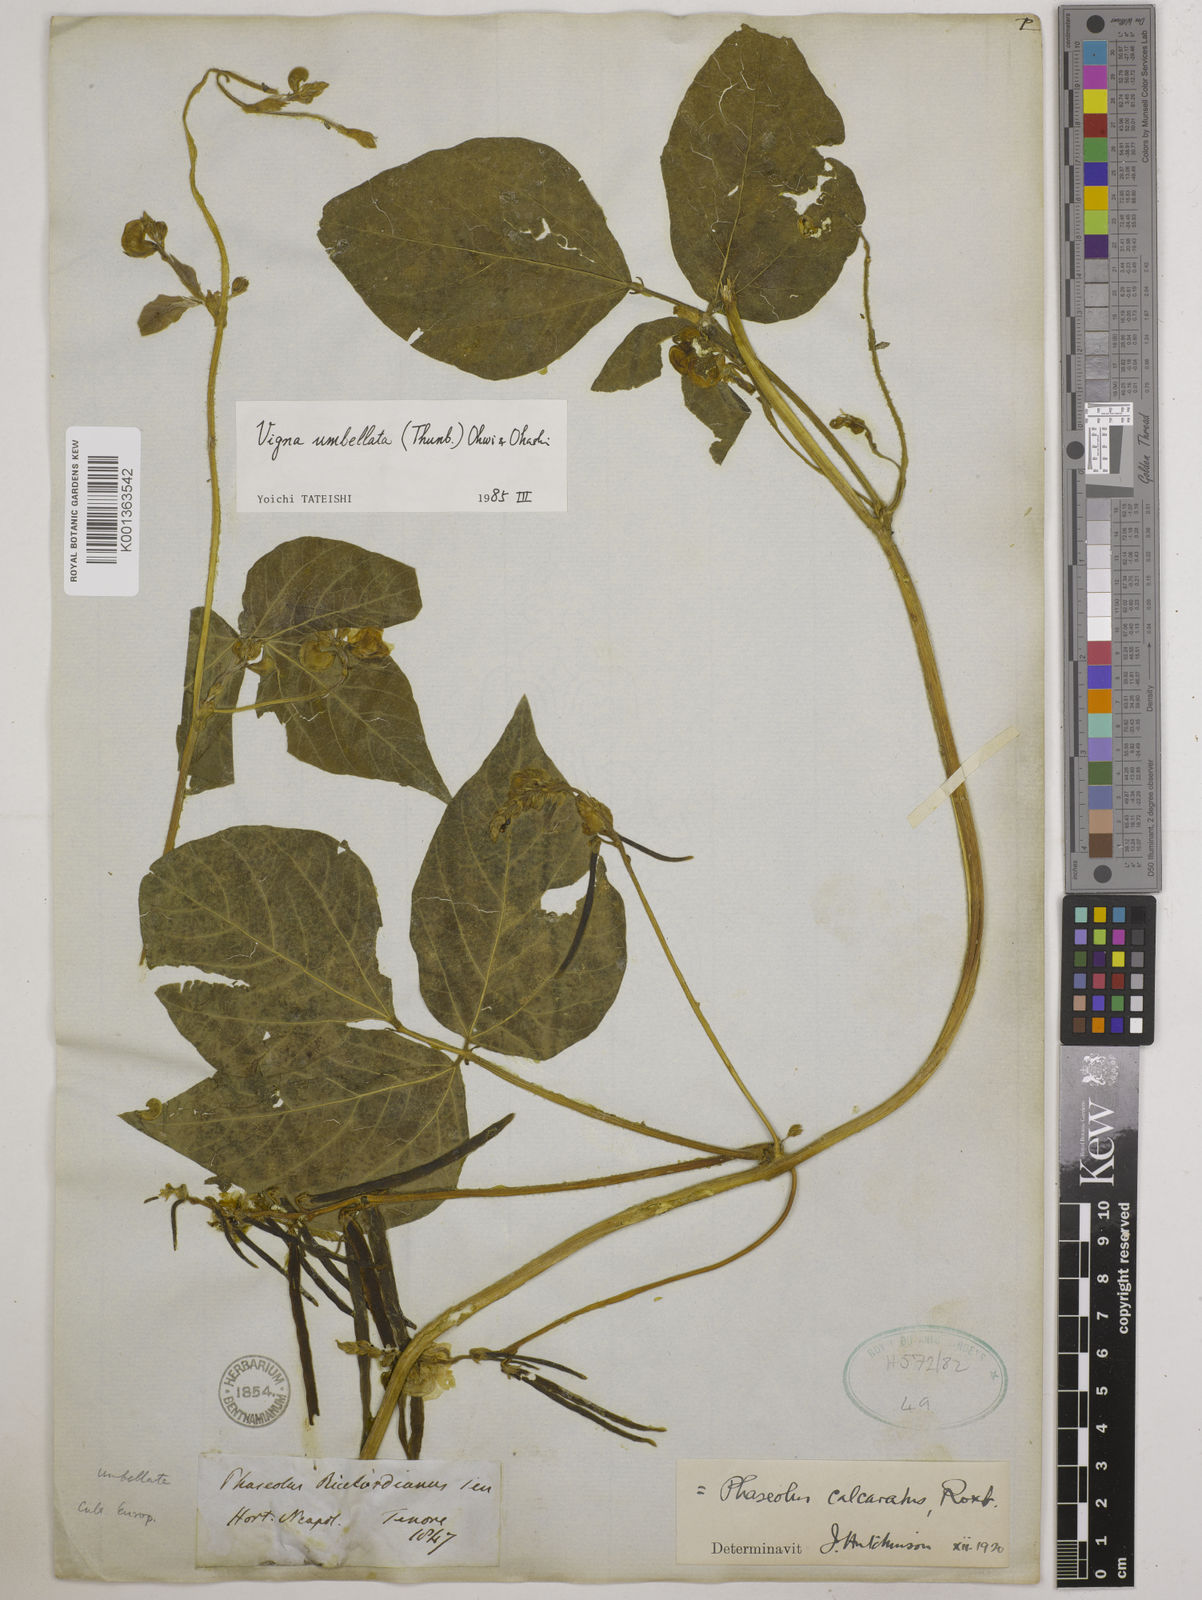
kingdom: Plantae
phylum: Tracheophyta
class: Magnoliopsida
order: Fabales
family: Fabaceae
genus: Vigna
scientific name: Vigna umbellata
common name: Oriental-bean
